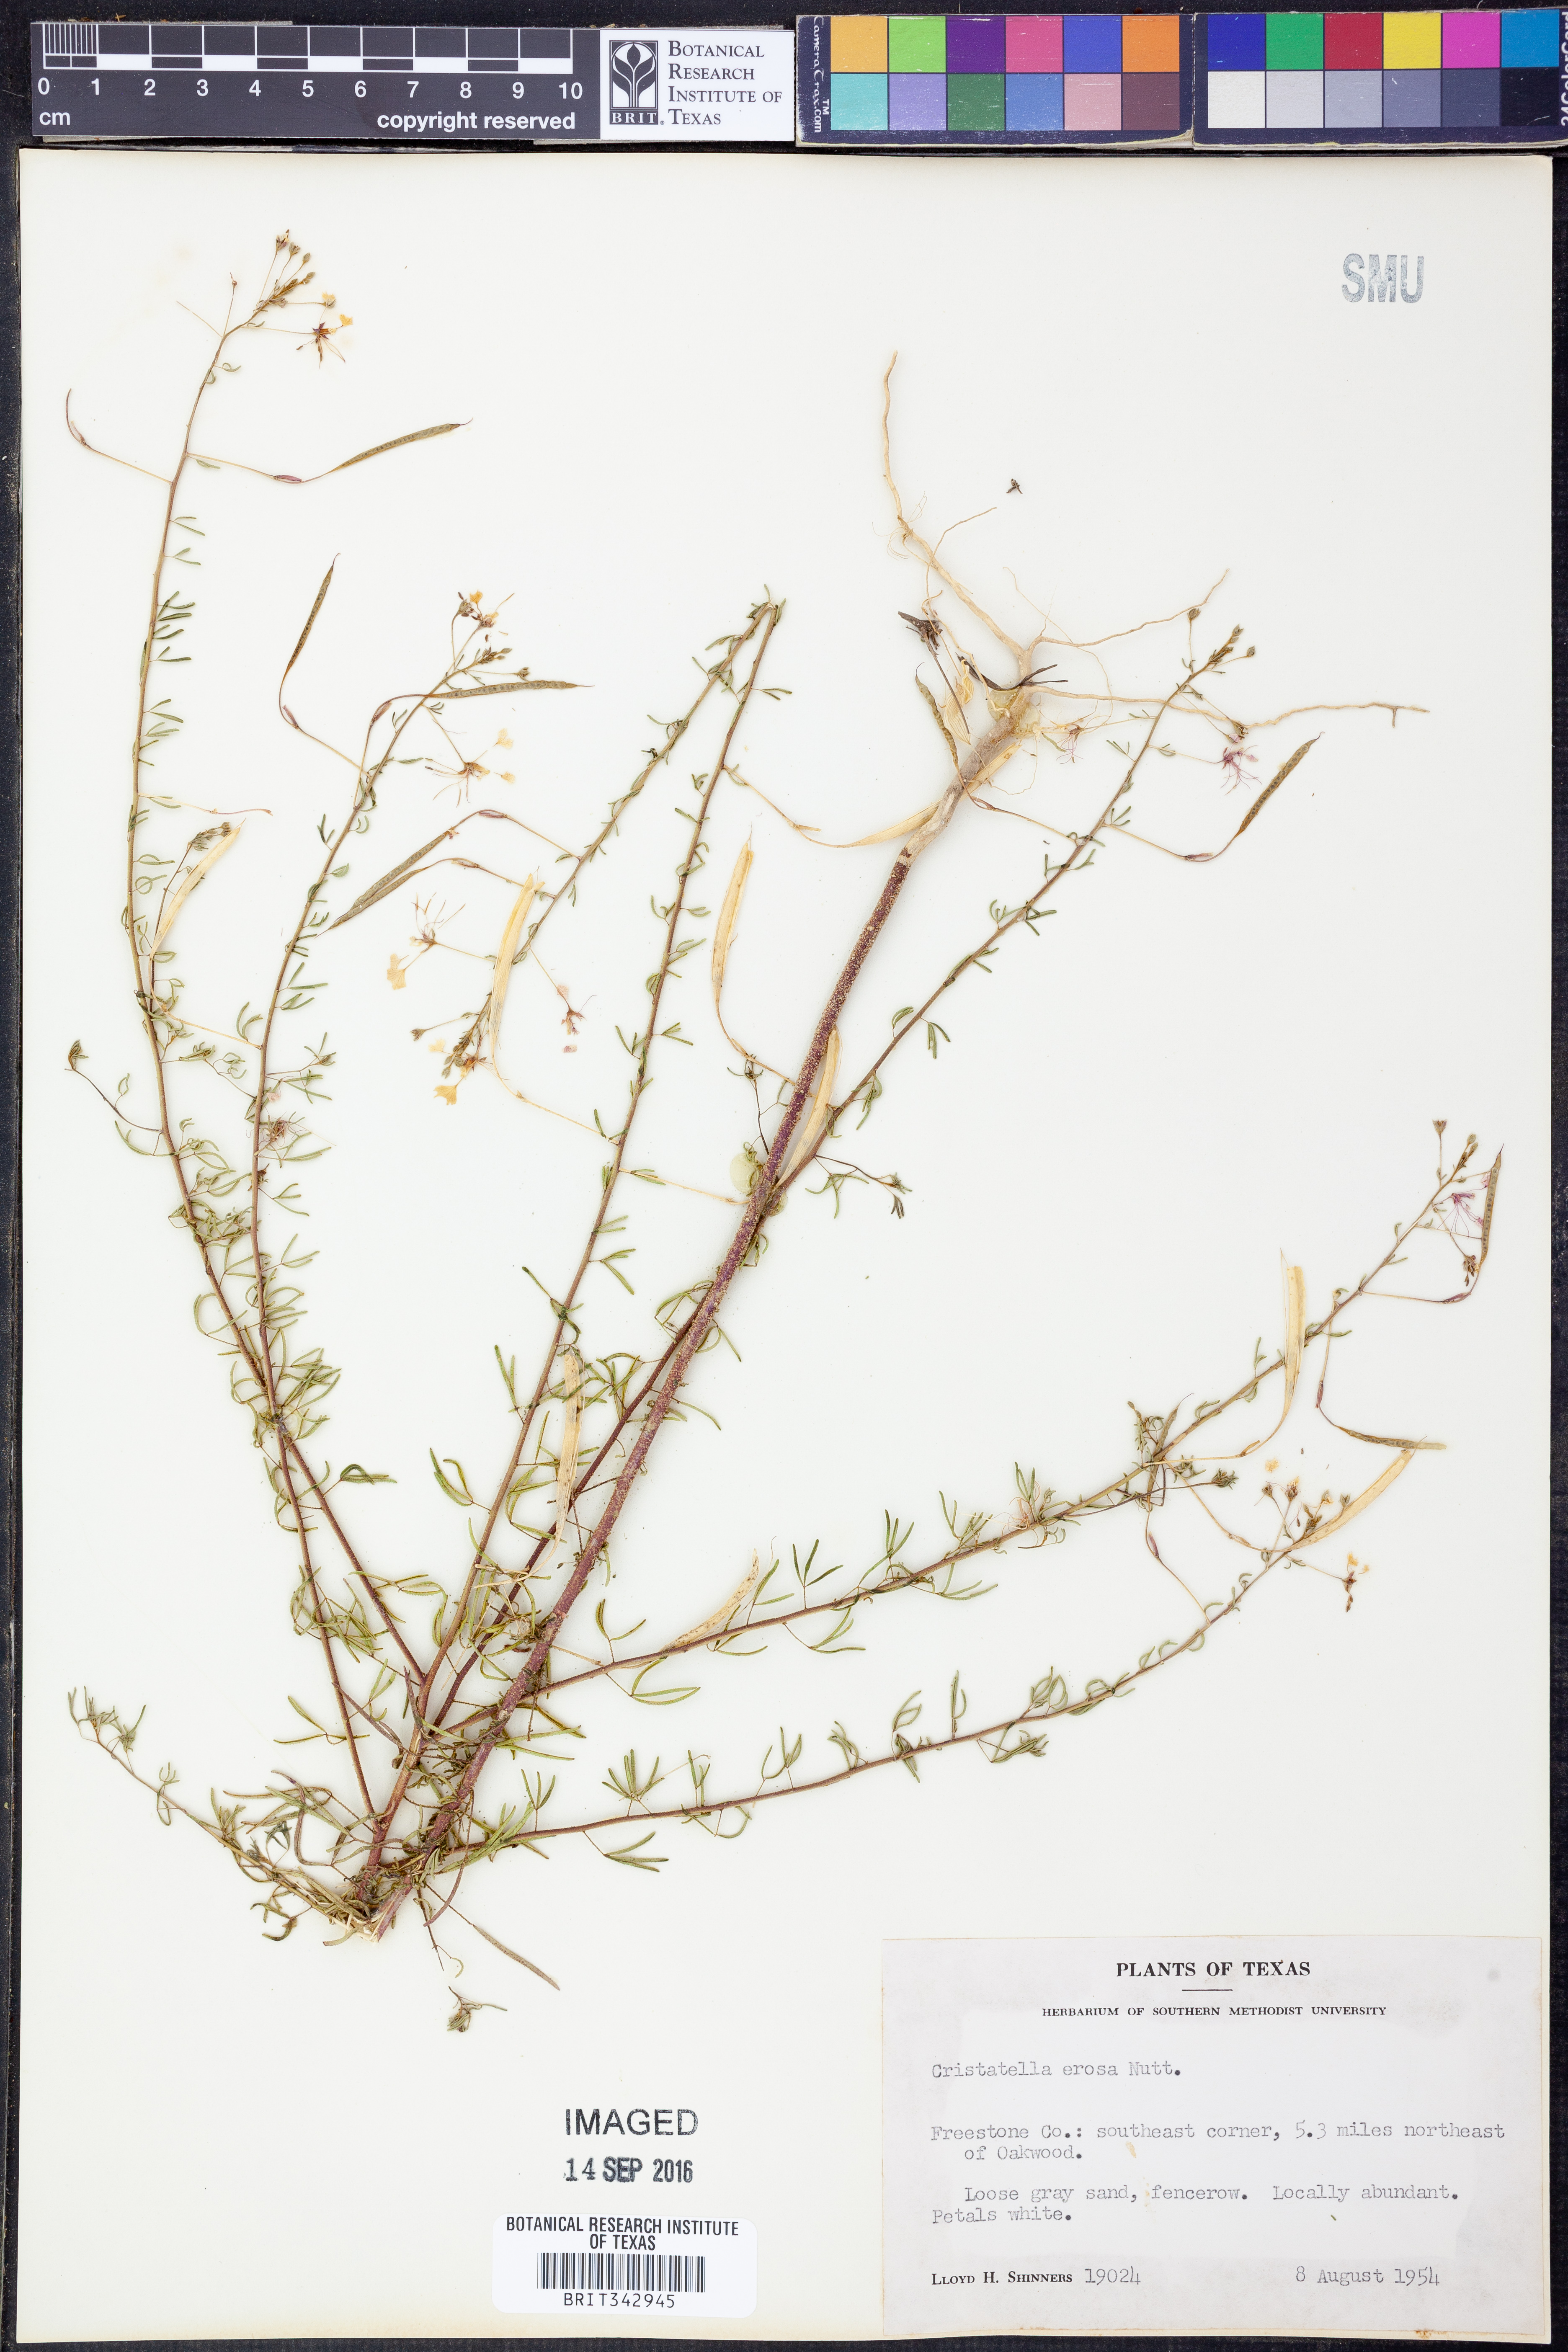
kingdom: Plantae
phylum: Tracheophyta
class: Magnoliopsida
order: Brassicales
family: Cleomaceae
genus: Polanisia
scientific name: Polanisia erosa
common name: Large clammyweed
